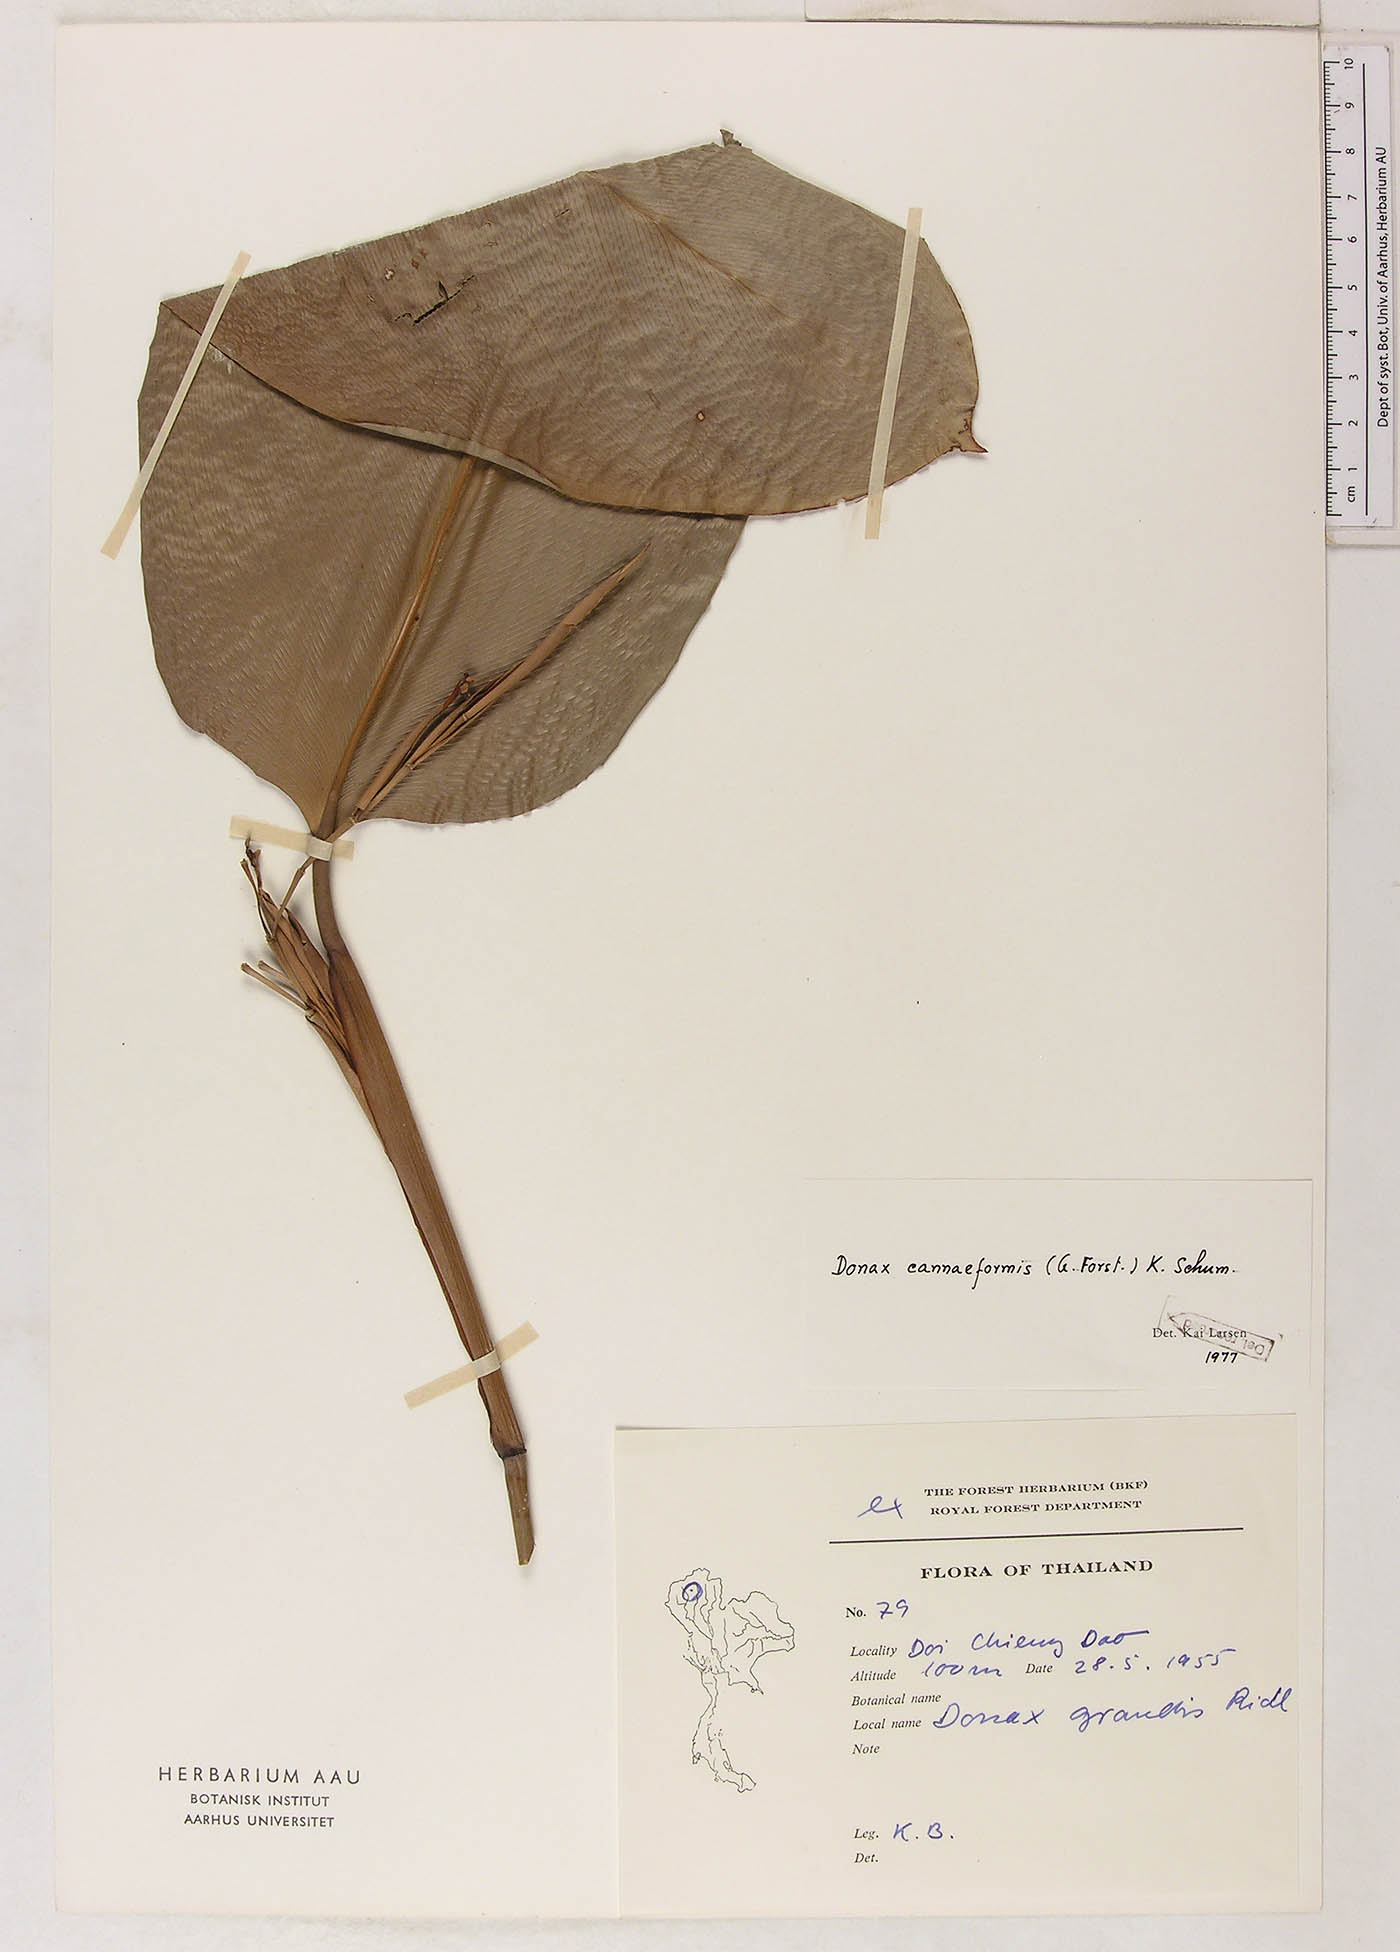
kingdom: Plantae
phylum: Tracheophyta
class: Liliopsida
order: Zingiberales
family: Marantaceae
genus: Donax
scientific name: Donax canniformis
